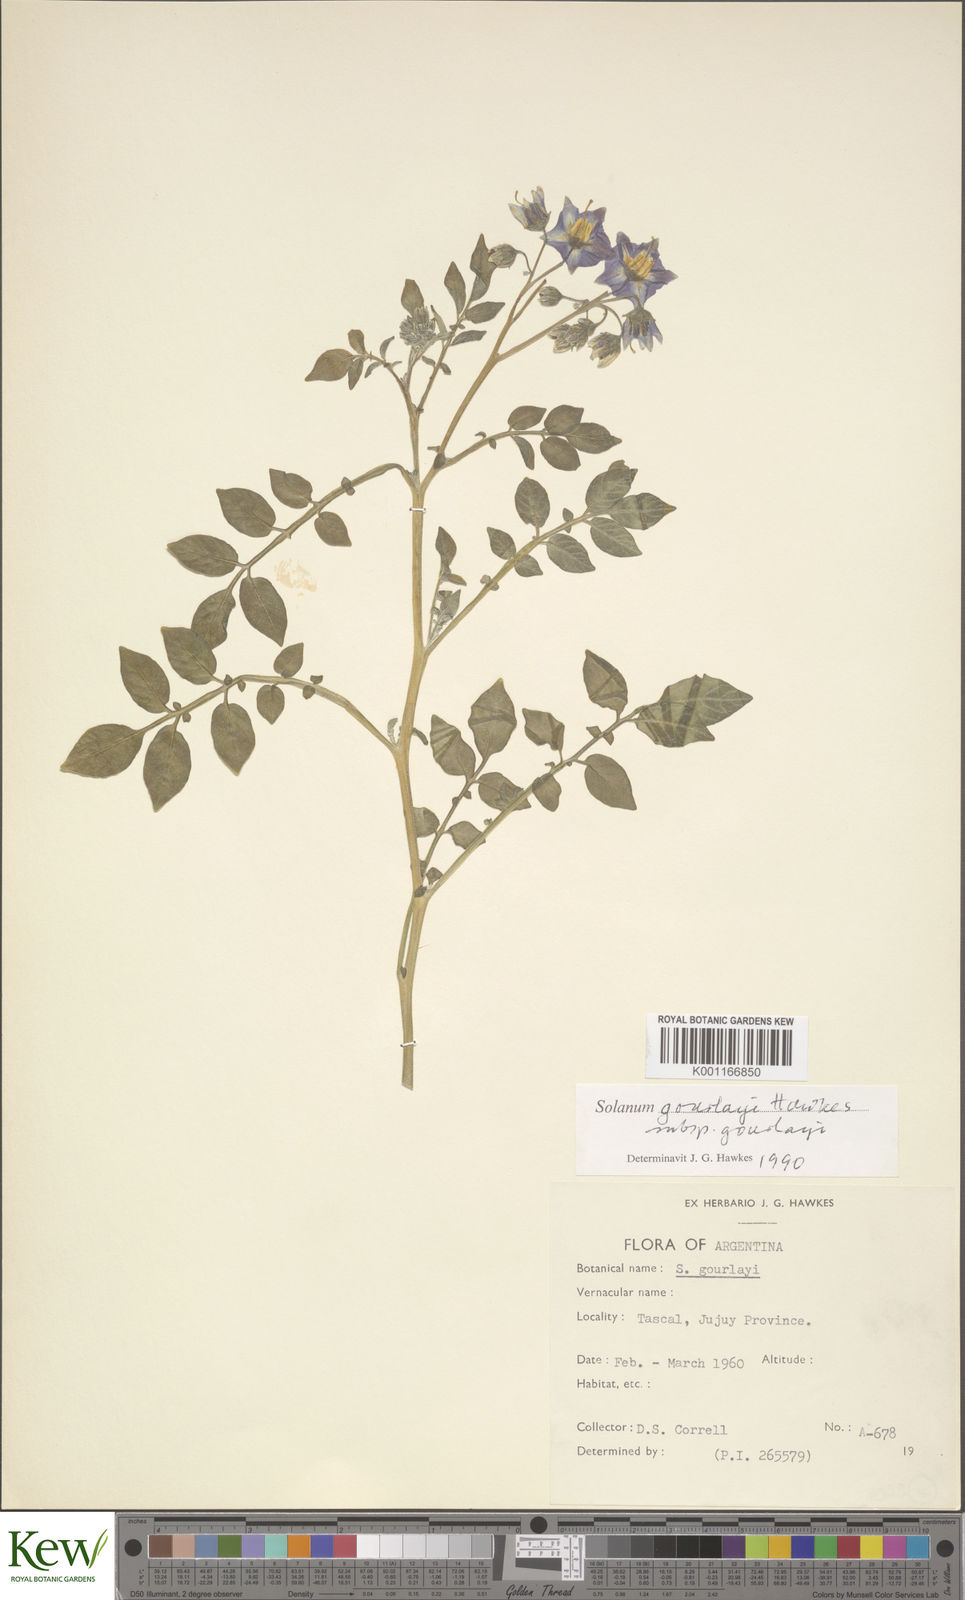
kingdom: Plantae
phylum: Tracheophyta
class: Magnoliopsida
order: Solanales
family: Solanaceae
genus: Solanum
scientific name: Solanum brevicaule
